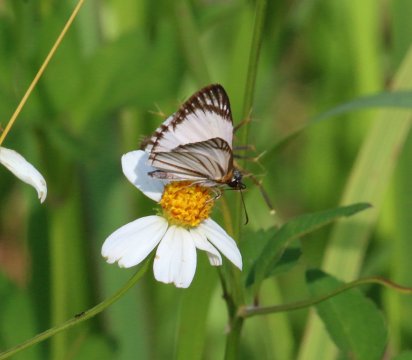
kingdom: Animalia
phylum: Arthropoda
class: Insecta
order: Lepidoptera
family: Hesperiidae
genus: Heliopetes
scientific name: Heliopetes arsalte
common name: Veined White-Skipper
